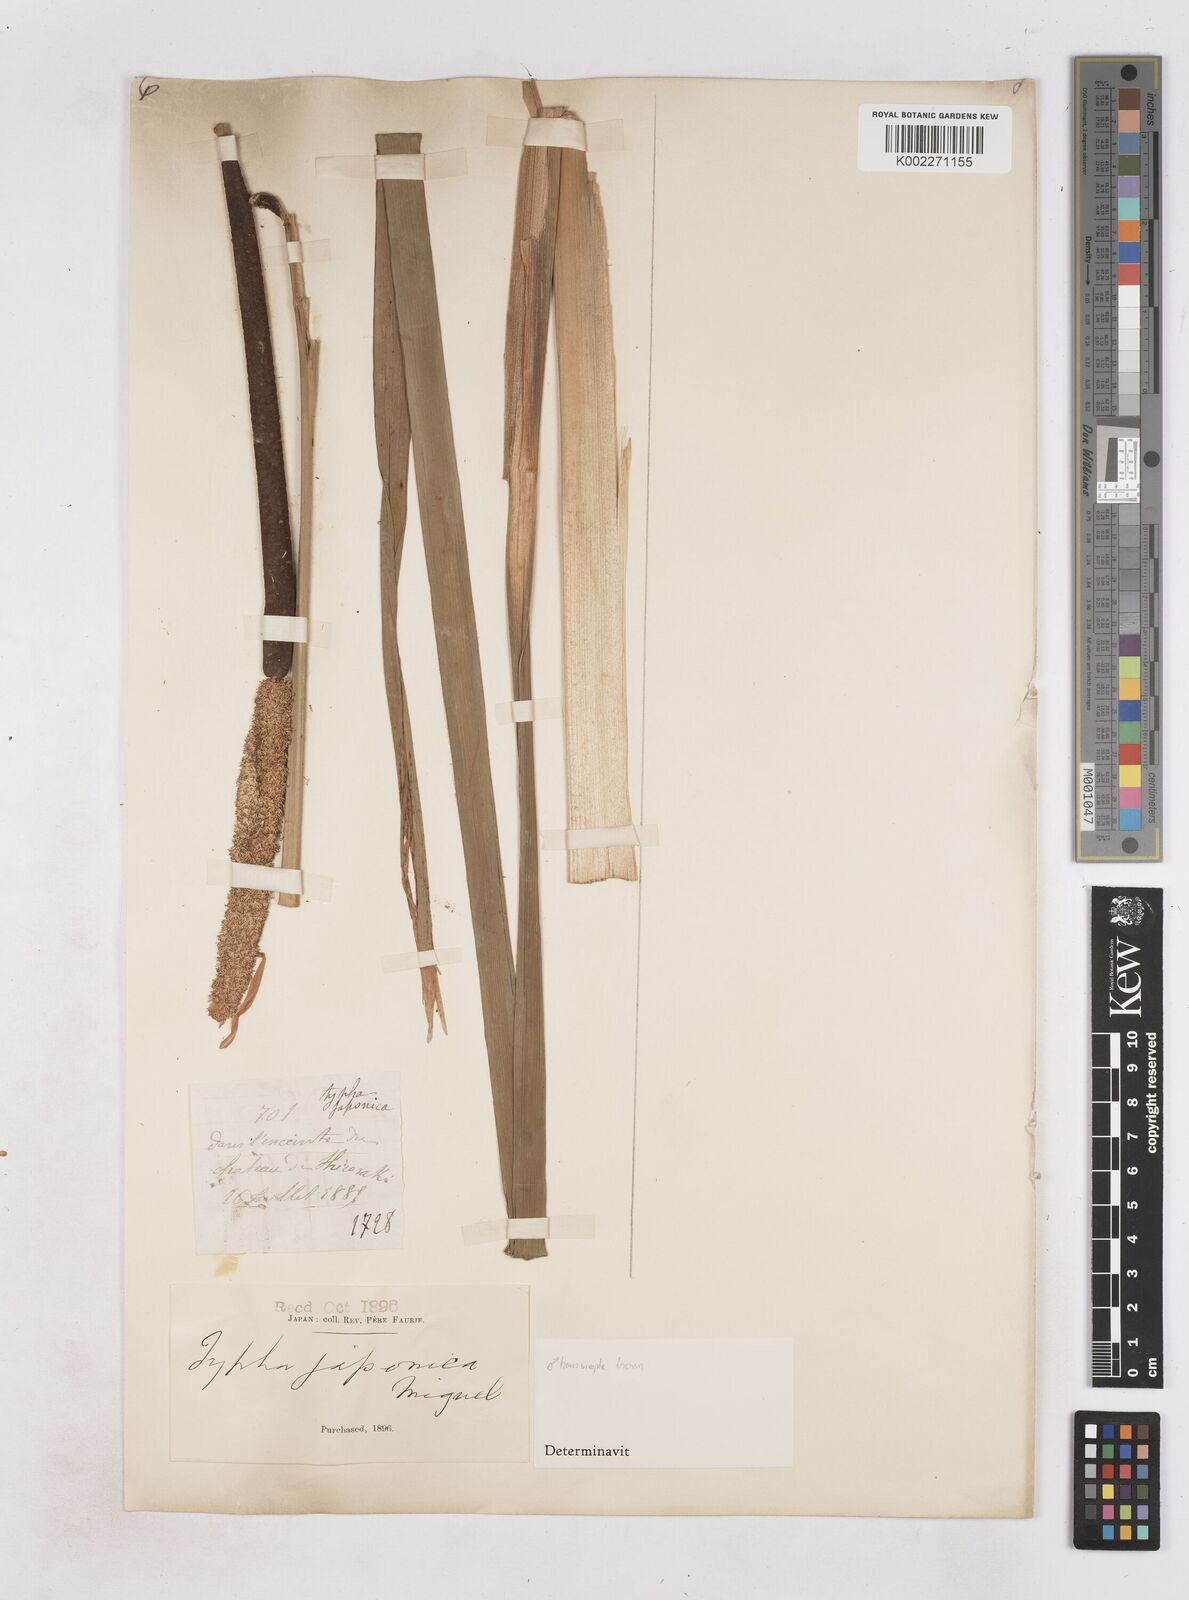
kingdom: Plantae
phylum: Tracheophyta
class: Liliopsida
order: Poales
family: Typhaceae
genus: Typha
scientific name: Typha latifolia
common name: Broadleaf cattail
